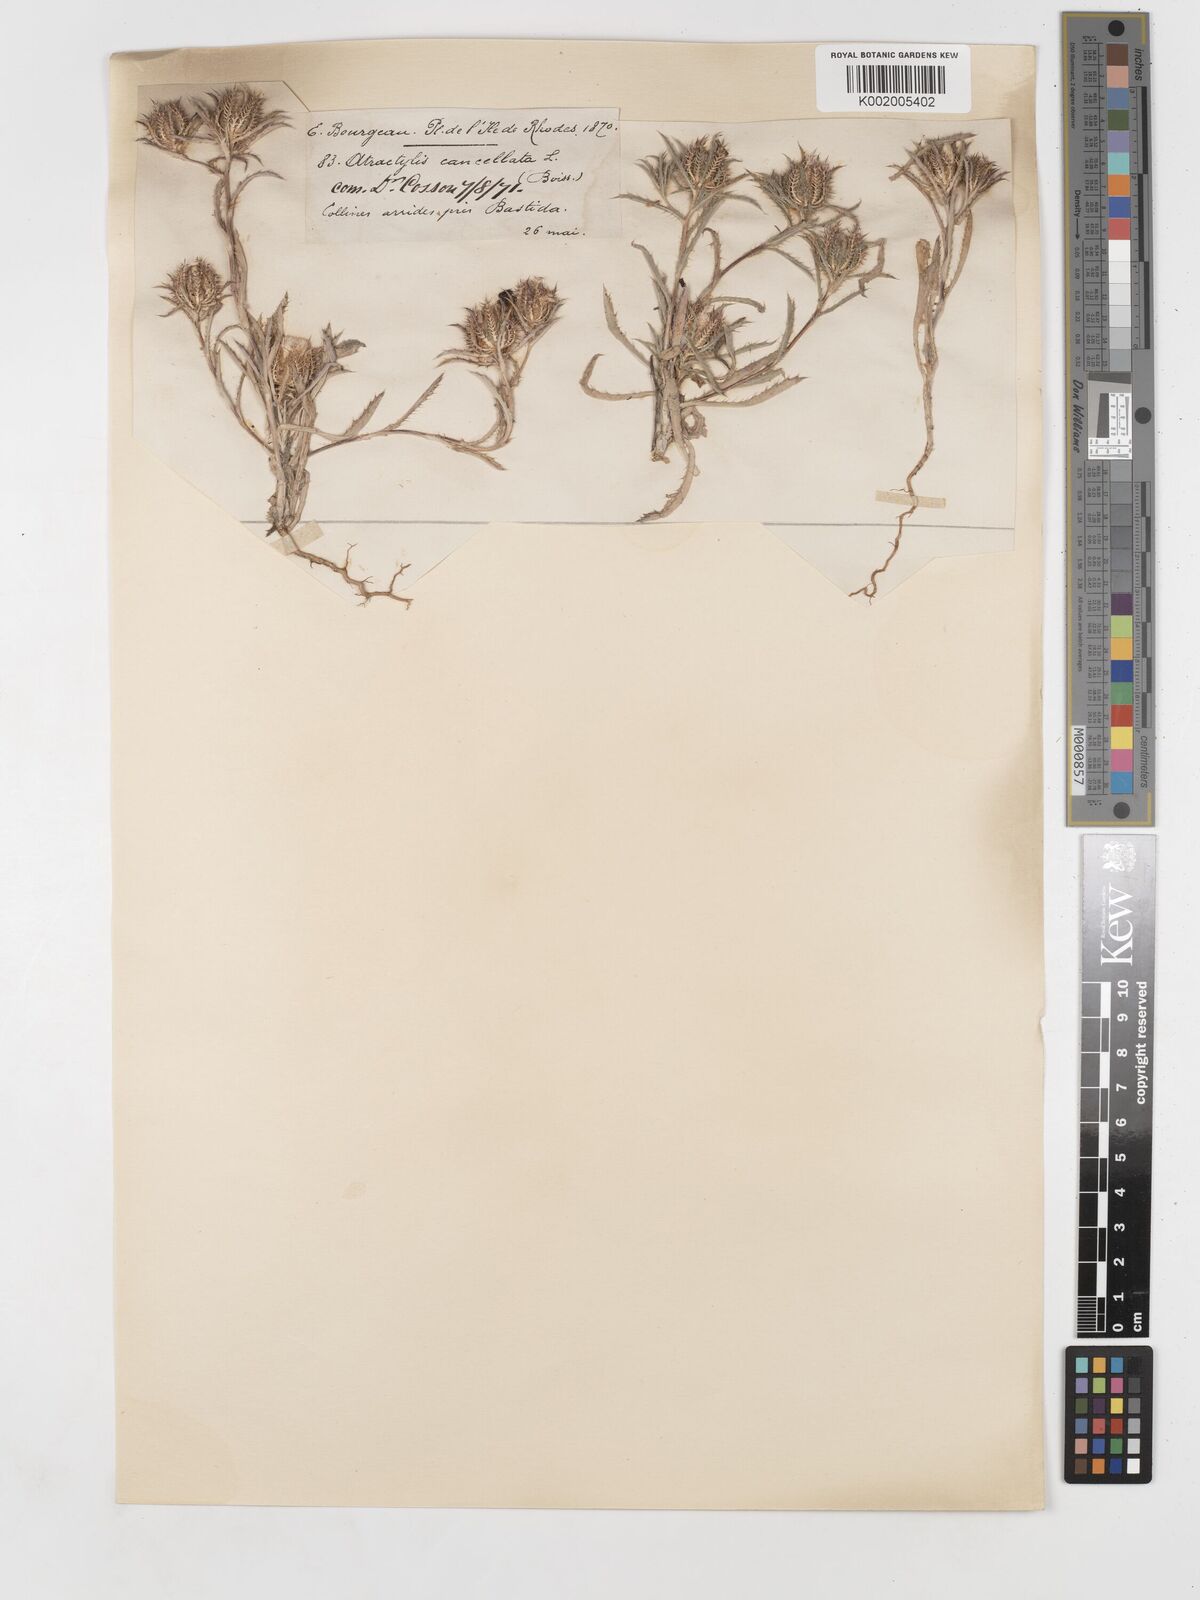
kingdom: Plantae
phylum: Tracheophyta
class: Magnoliopsida
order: Asterales
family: Asteraceae
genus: Atractylis
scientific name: Atractylis cancellata
